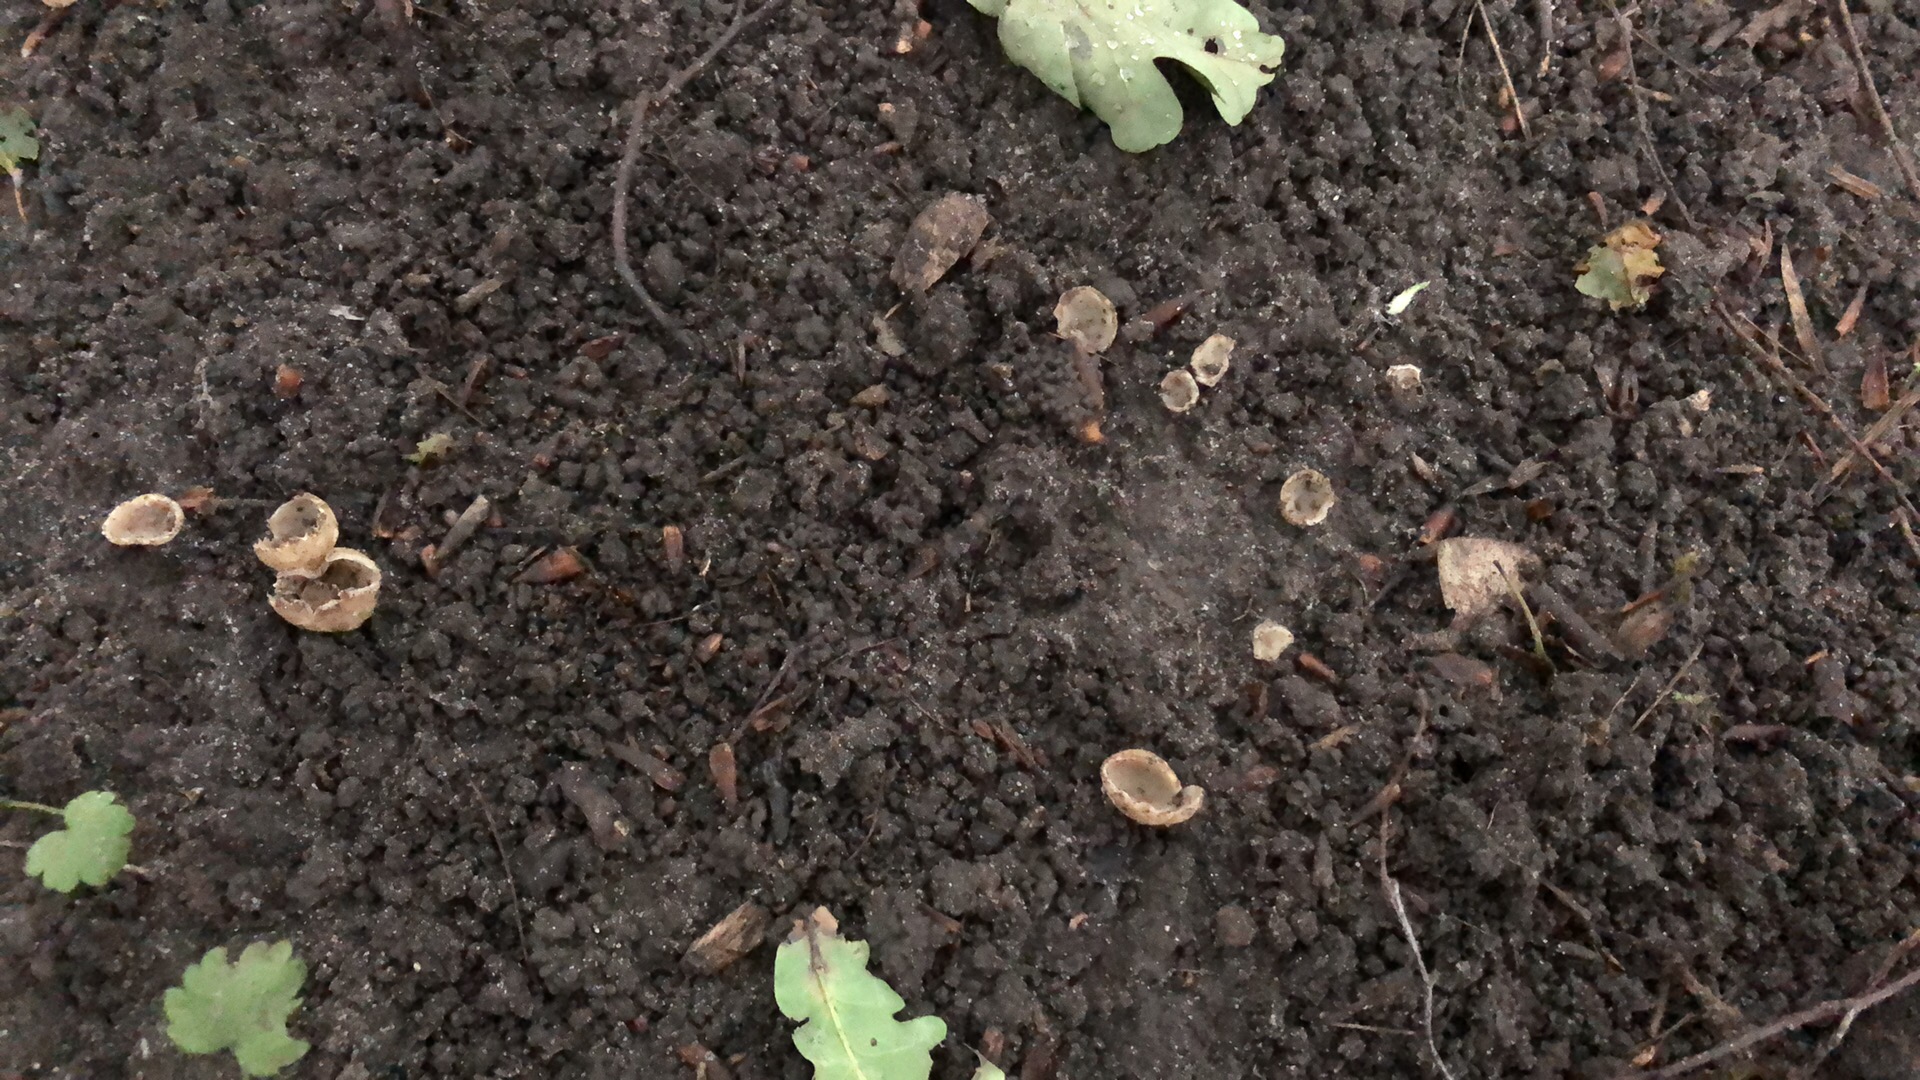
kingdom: Fungi
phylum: Ascomycota
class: Pezizomycetes
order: Pezizales
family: Pyronemataceae
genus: Tarzetta
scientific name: Tarzetta cupularis
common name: gulbrun pokalbæger
